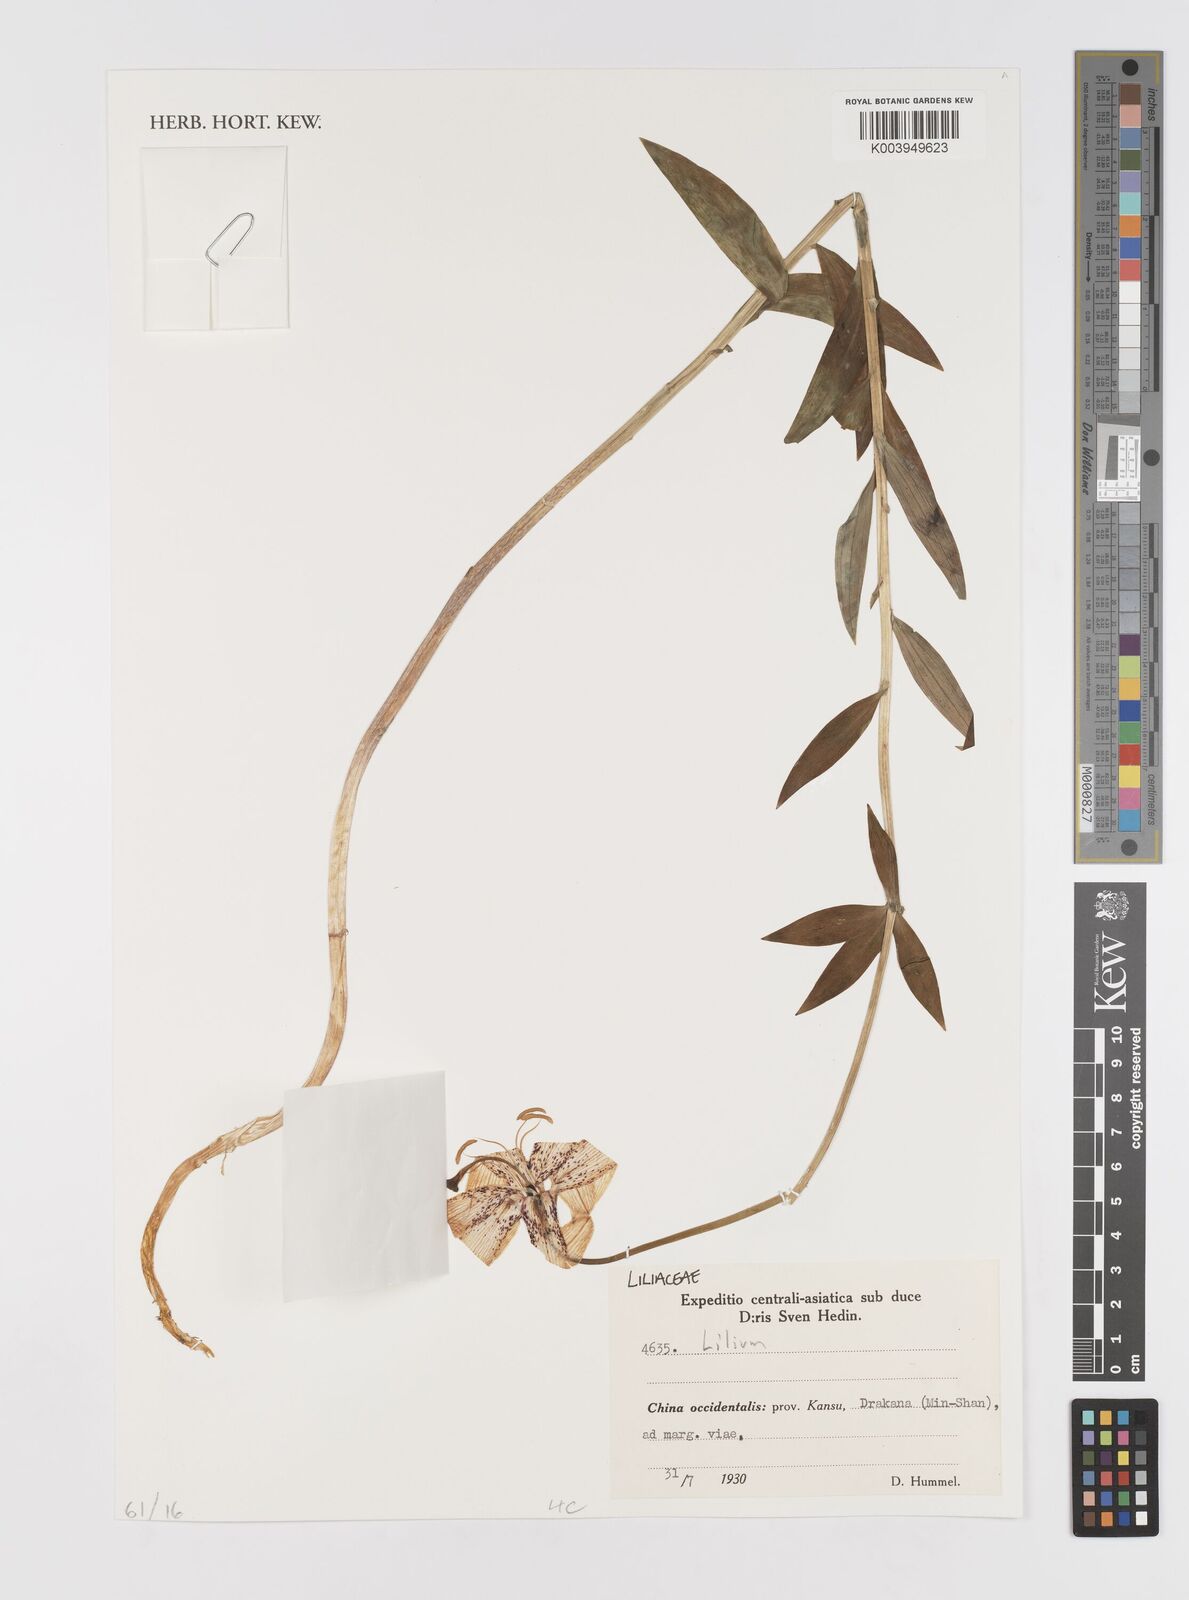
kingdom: Plantae
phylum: Tracheophyta
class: Liliopsida
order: Liliales
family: Liliaceae
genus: Lilium
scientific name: Lilium
